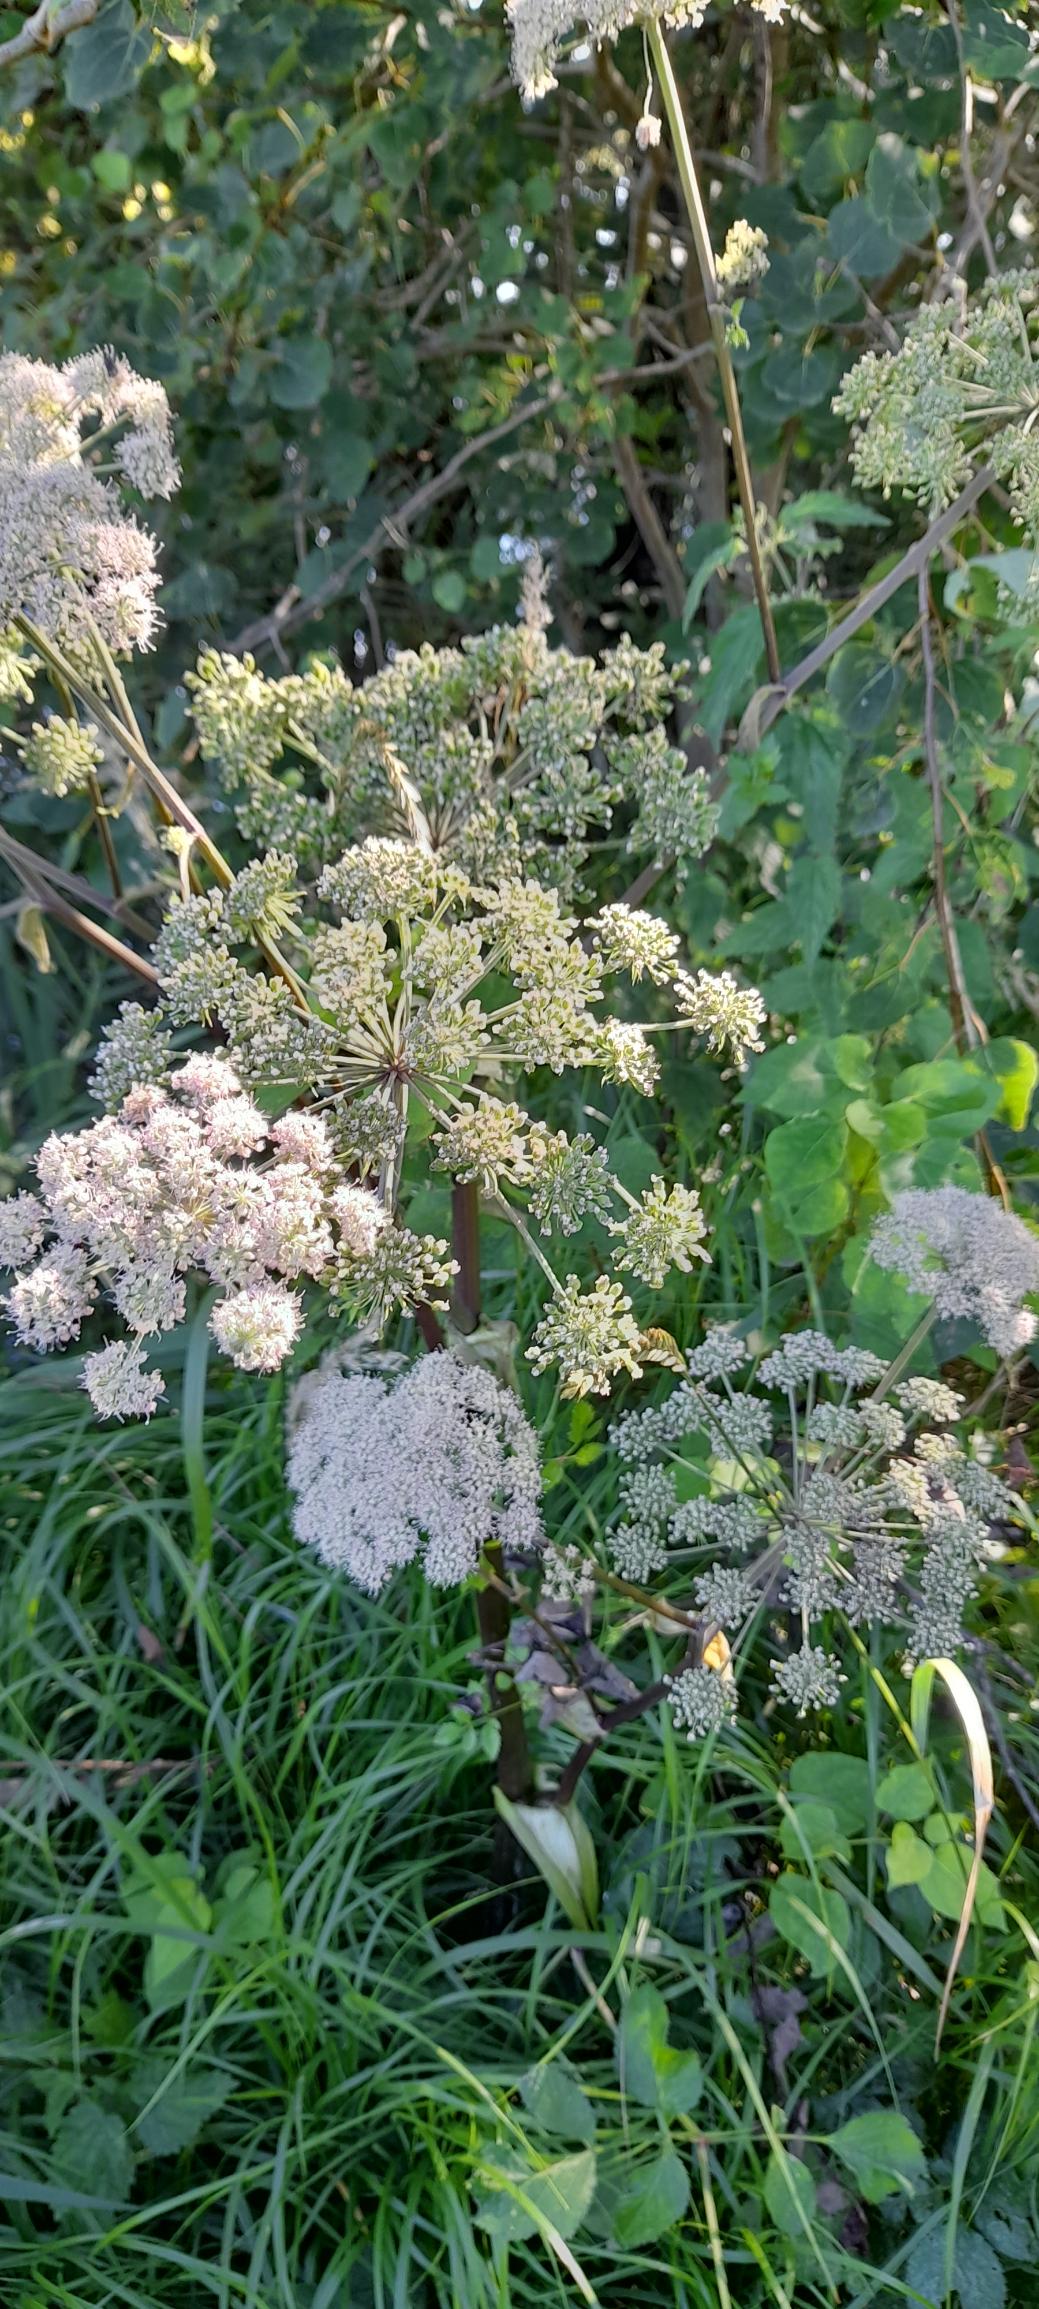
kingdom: Plantae
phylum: Tracheophyta
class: Magnoliopsida
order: Apiales
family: Apiaceae
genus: Angelica
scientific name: Angelica sylvestris
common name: Angelik
